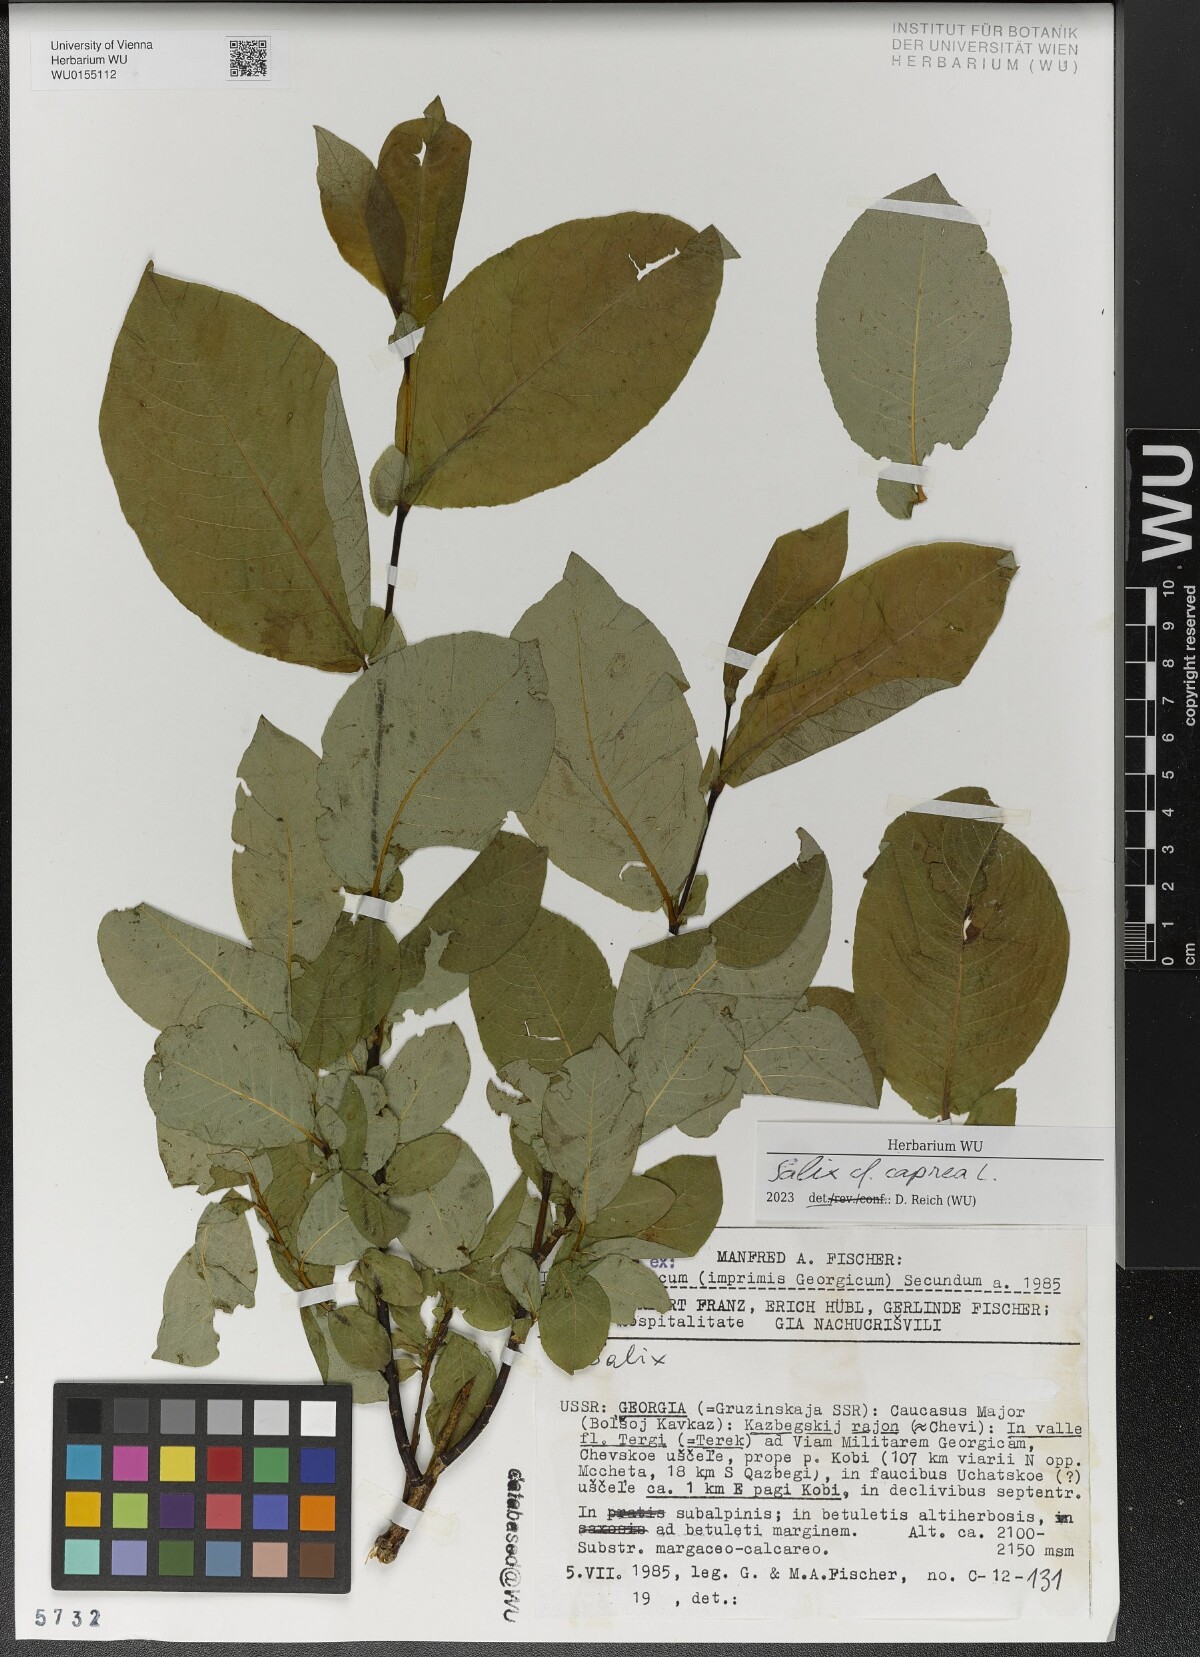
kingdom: Plantae
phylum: Tracheophyta
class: Magnoliopsida
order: Malpighiales
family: Salicaceae
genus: Salix
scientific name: Salix caprea
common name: Goat willow
